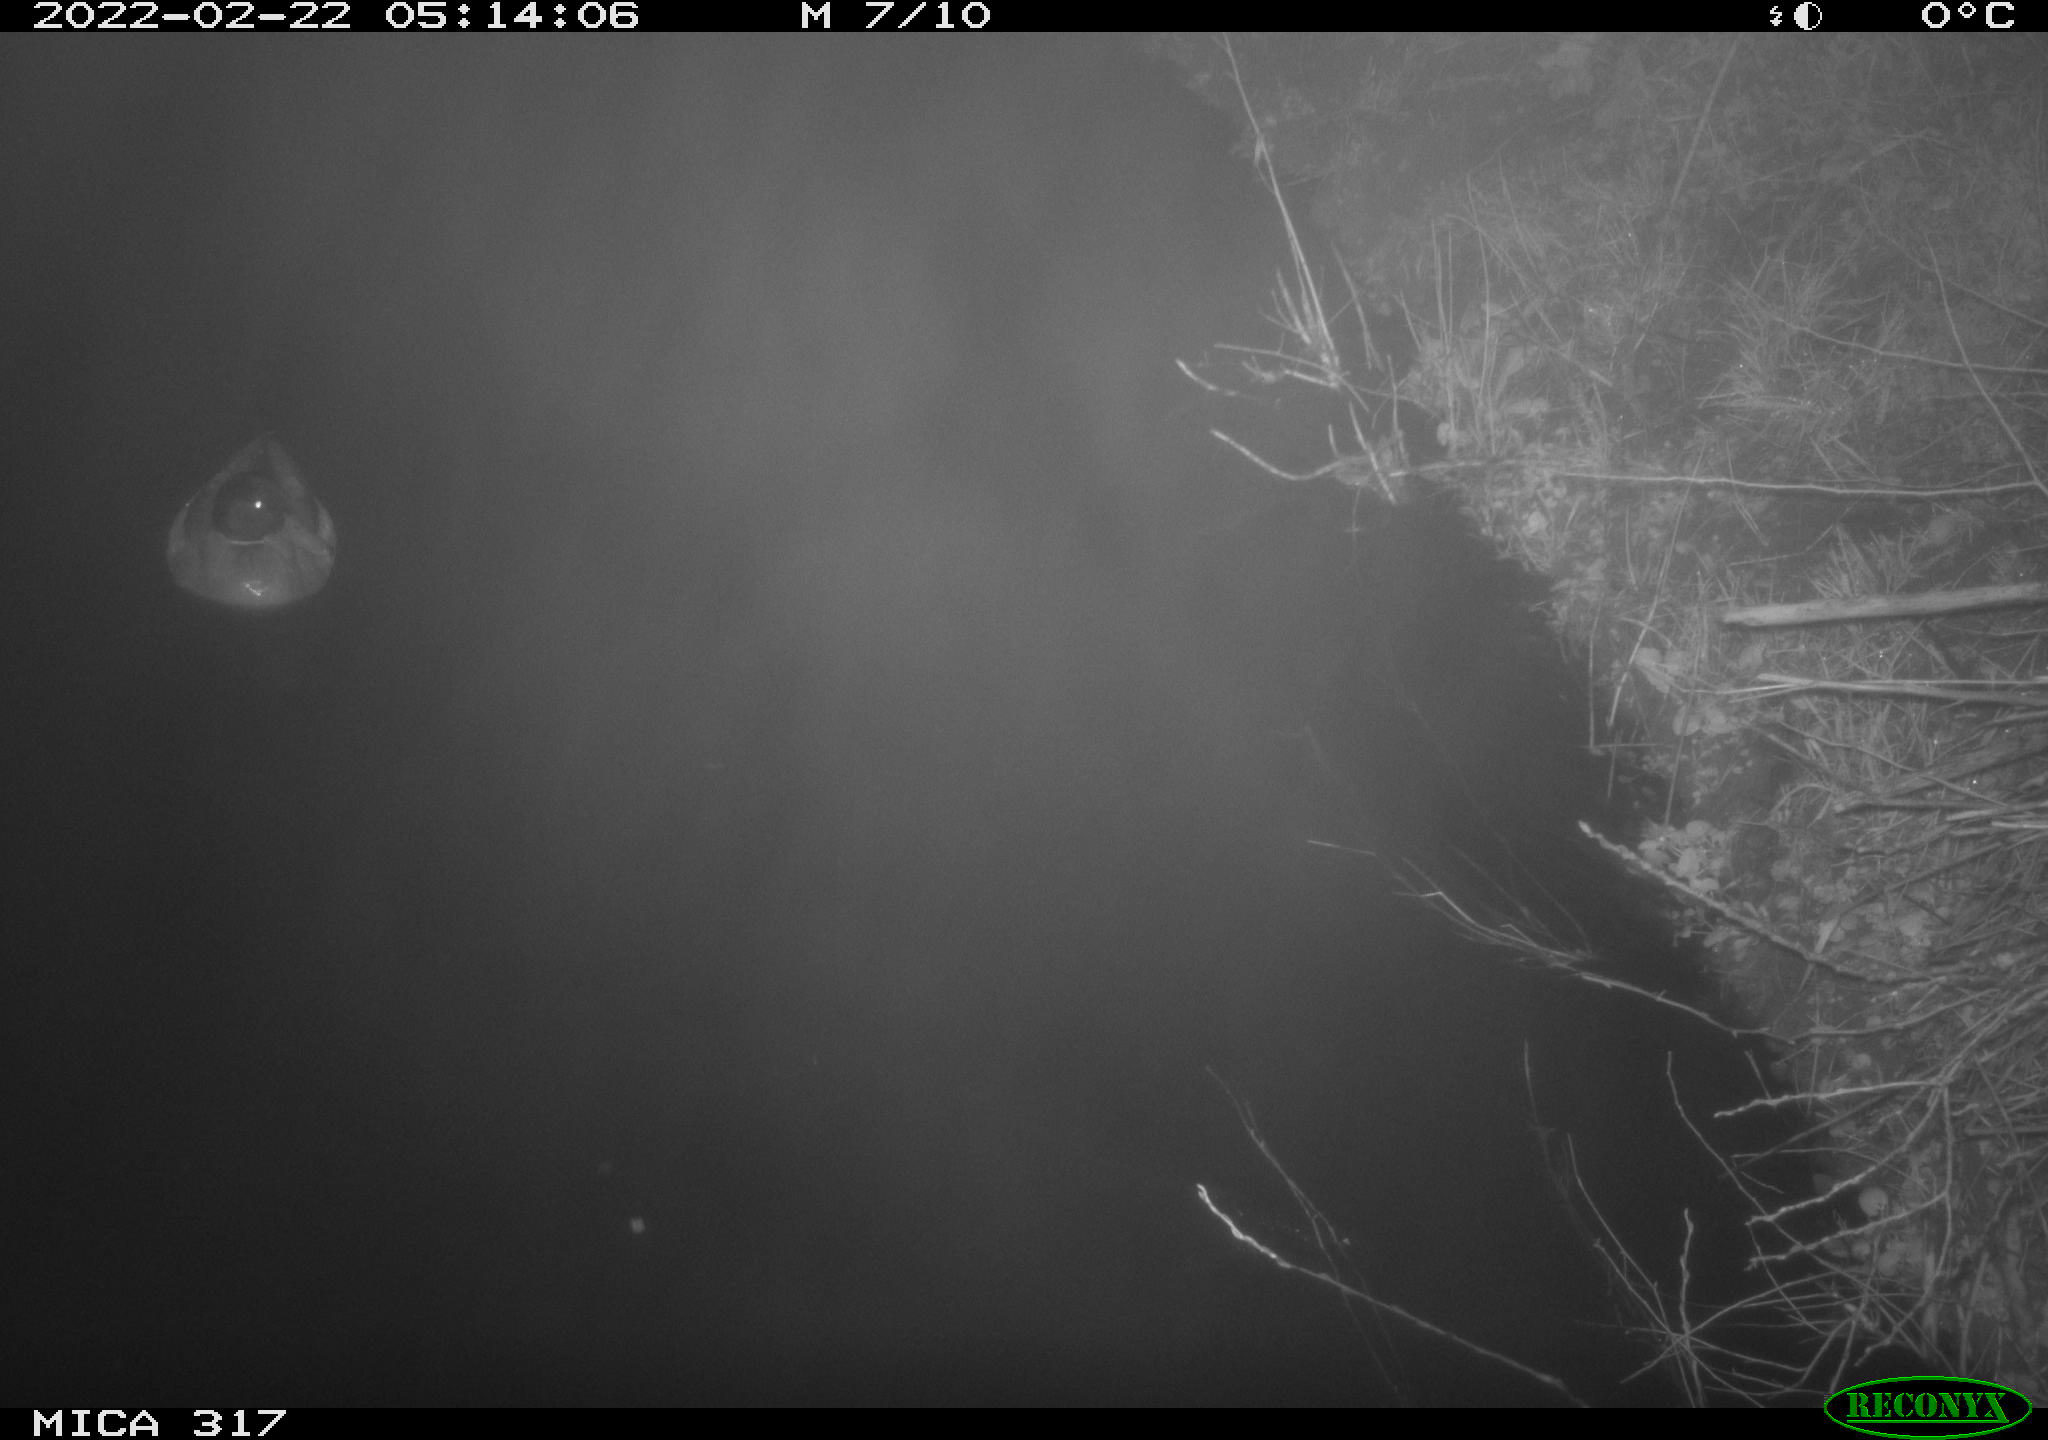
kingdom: Animalia
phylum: Chordata
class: Aves
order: Anseriformes
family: Anatidae
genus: Anas
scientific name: Anas platyrhynchos
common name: Mallard
